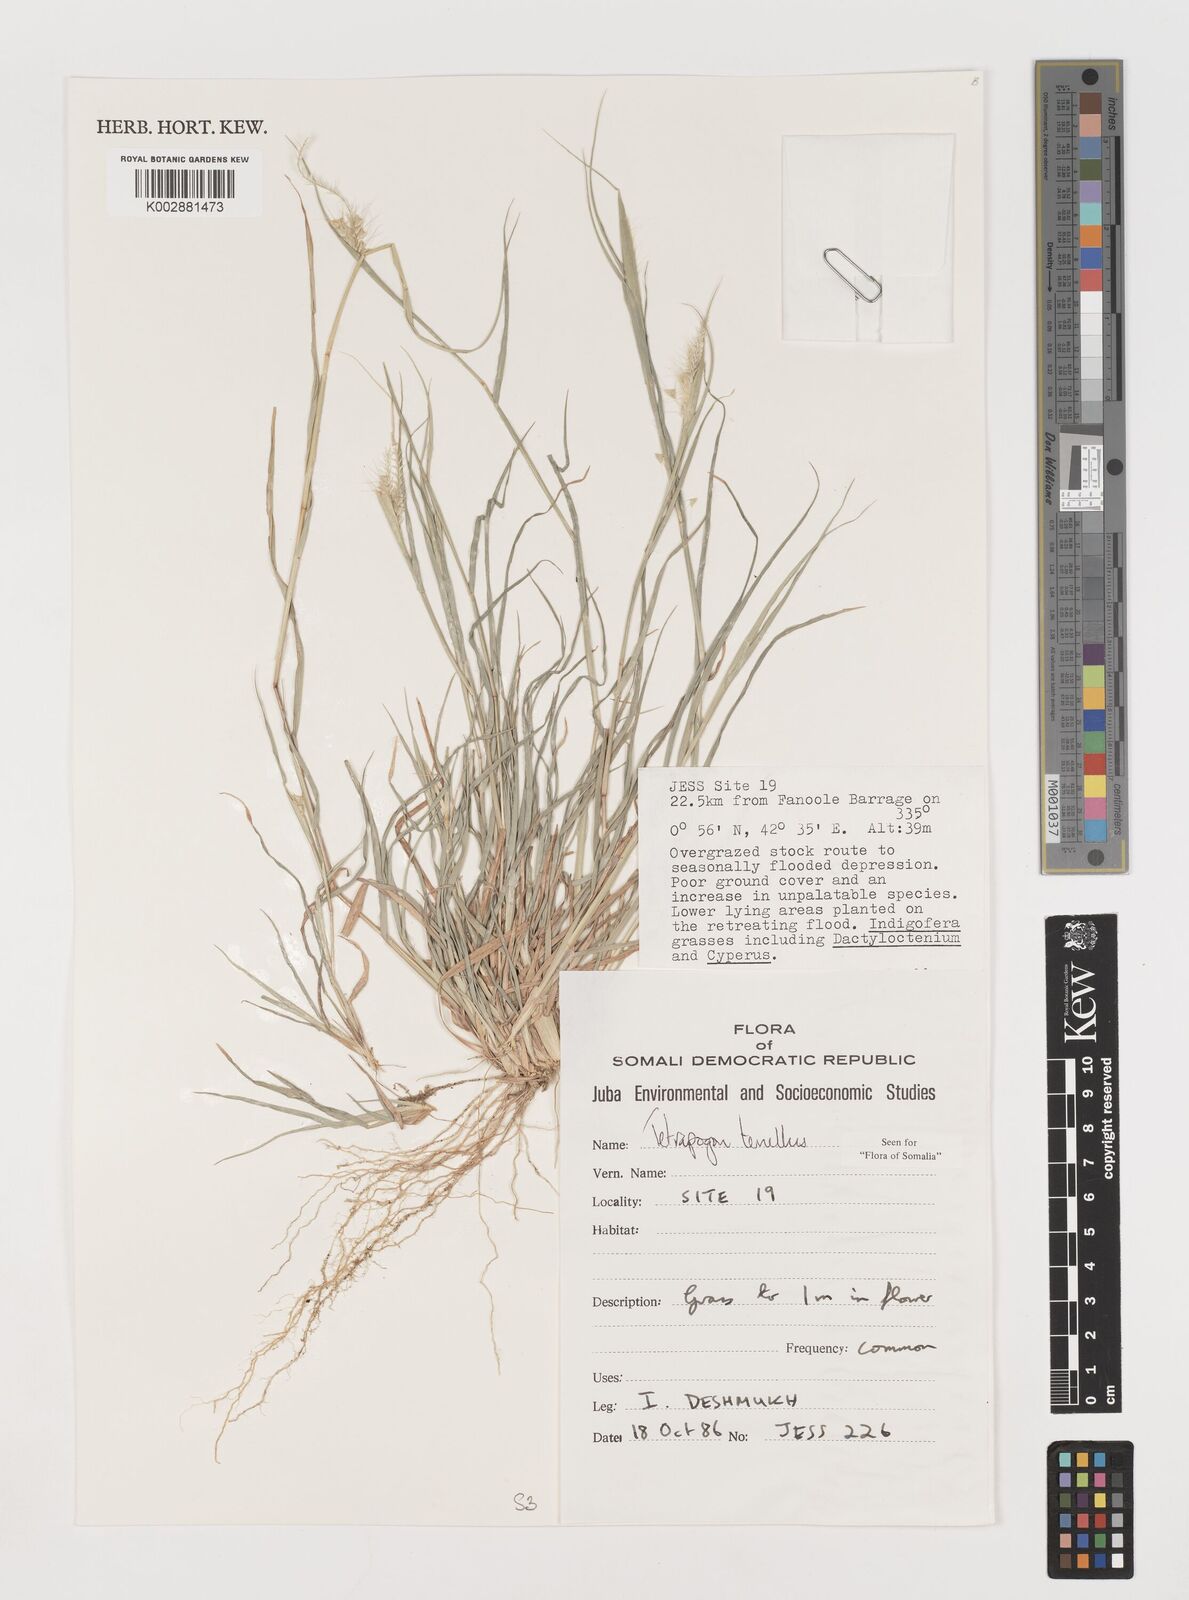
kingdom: Plantae
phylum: Tracheophyta
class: Liliopsida
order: Poales
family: Poaceae
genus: Tetrapogon
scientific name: Tetrapogon tenellus
